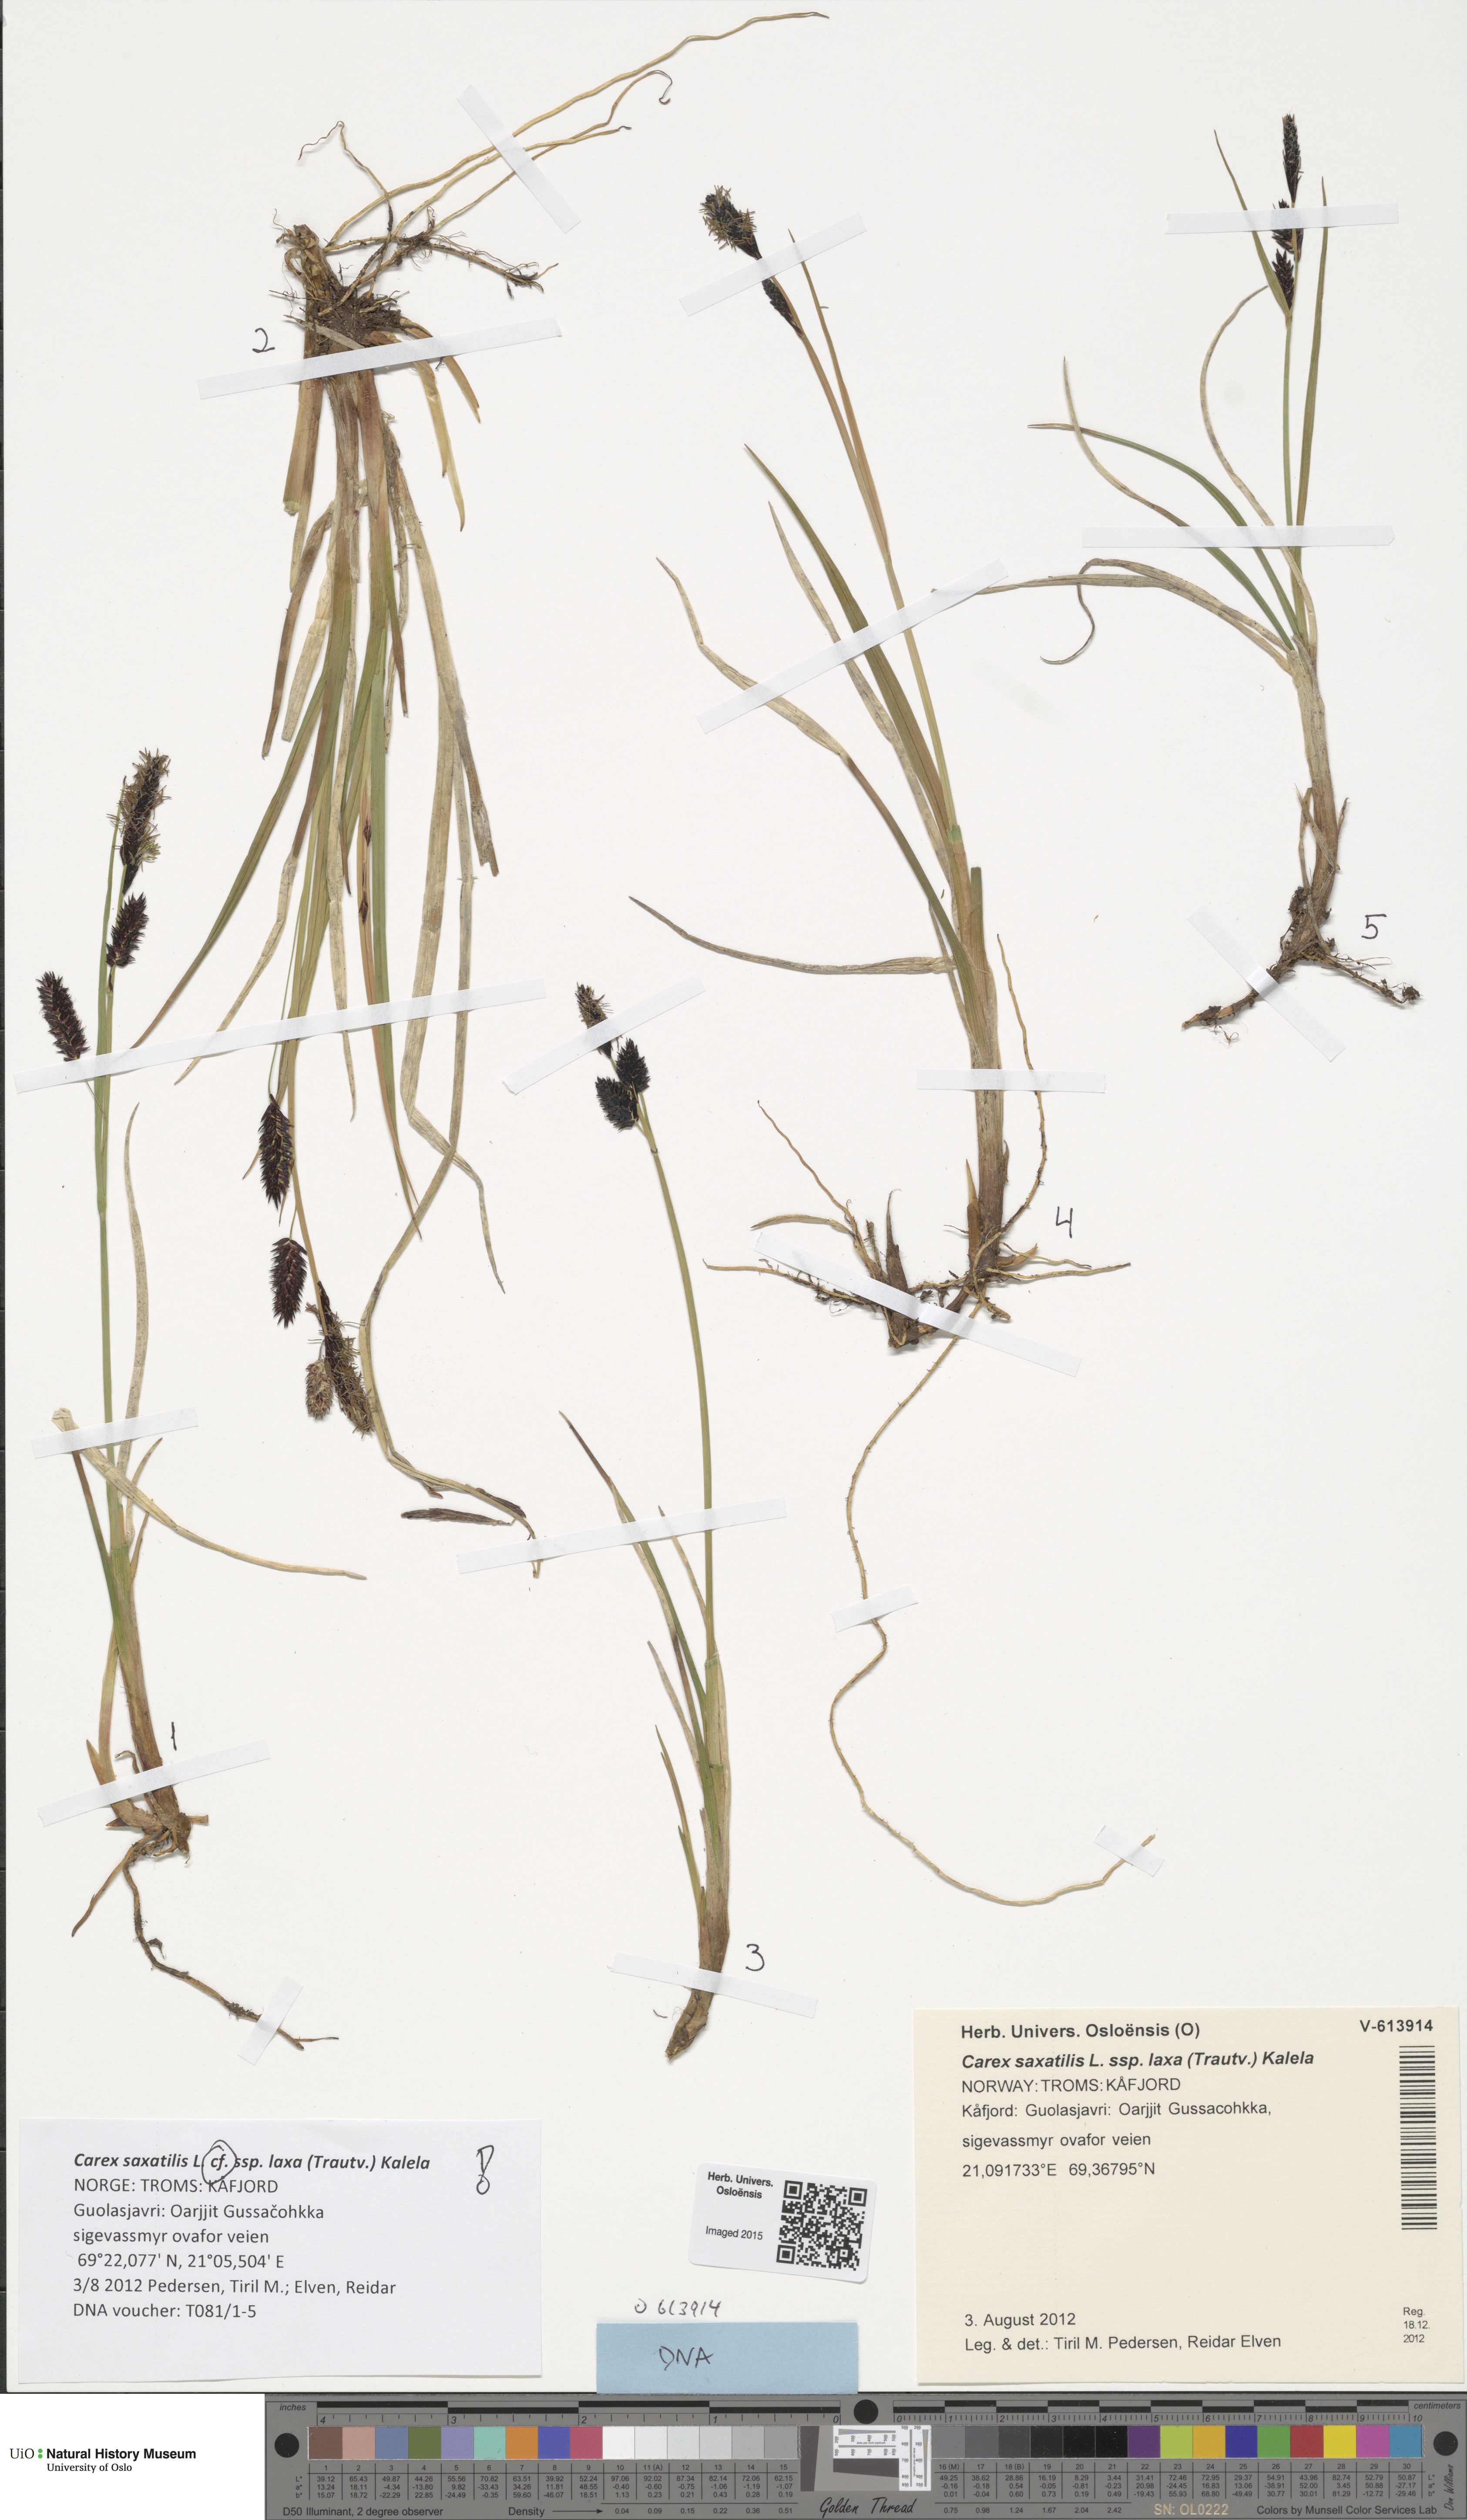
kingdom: Plantae
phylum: Tracheophyta
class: Liliopsida
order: Poales
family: Cyperaceae
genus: Carex
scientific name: Carex saxatilis
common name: Russet sedge
